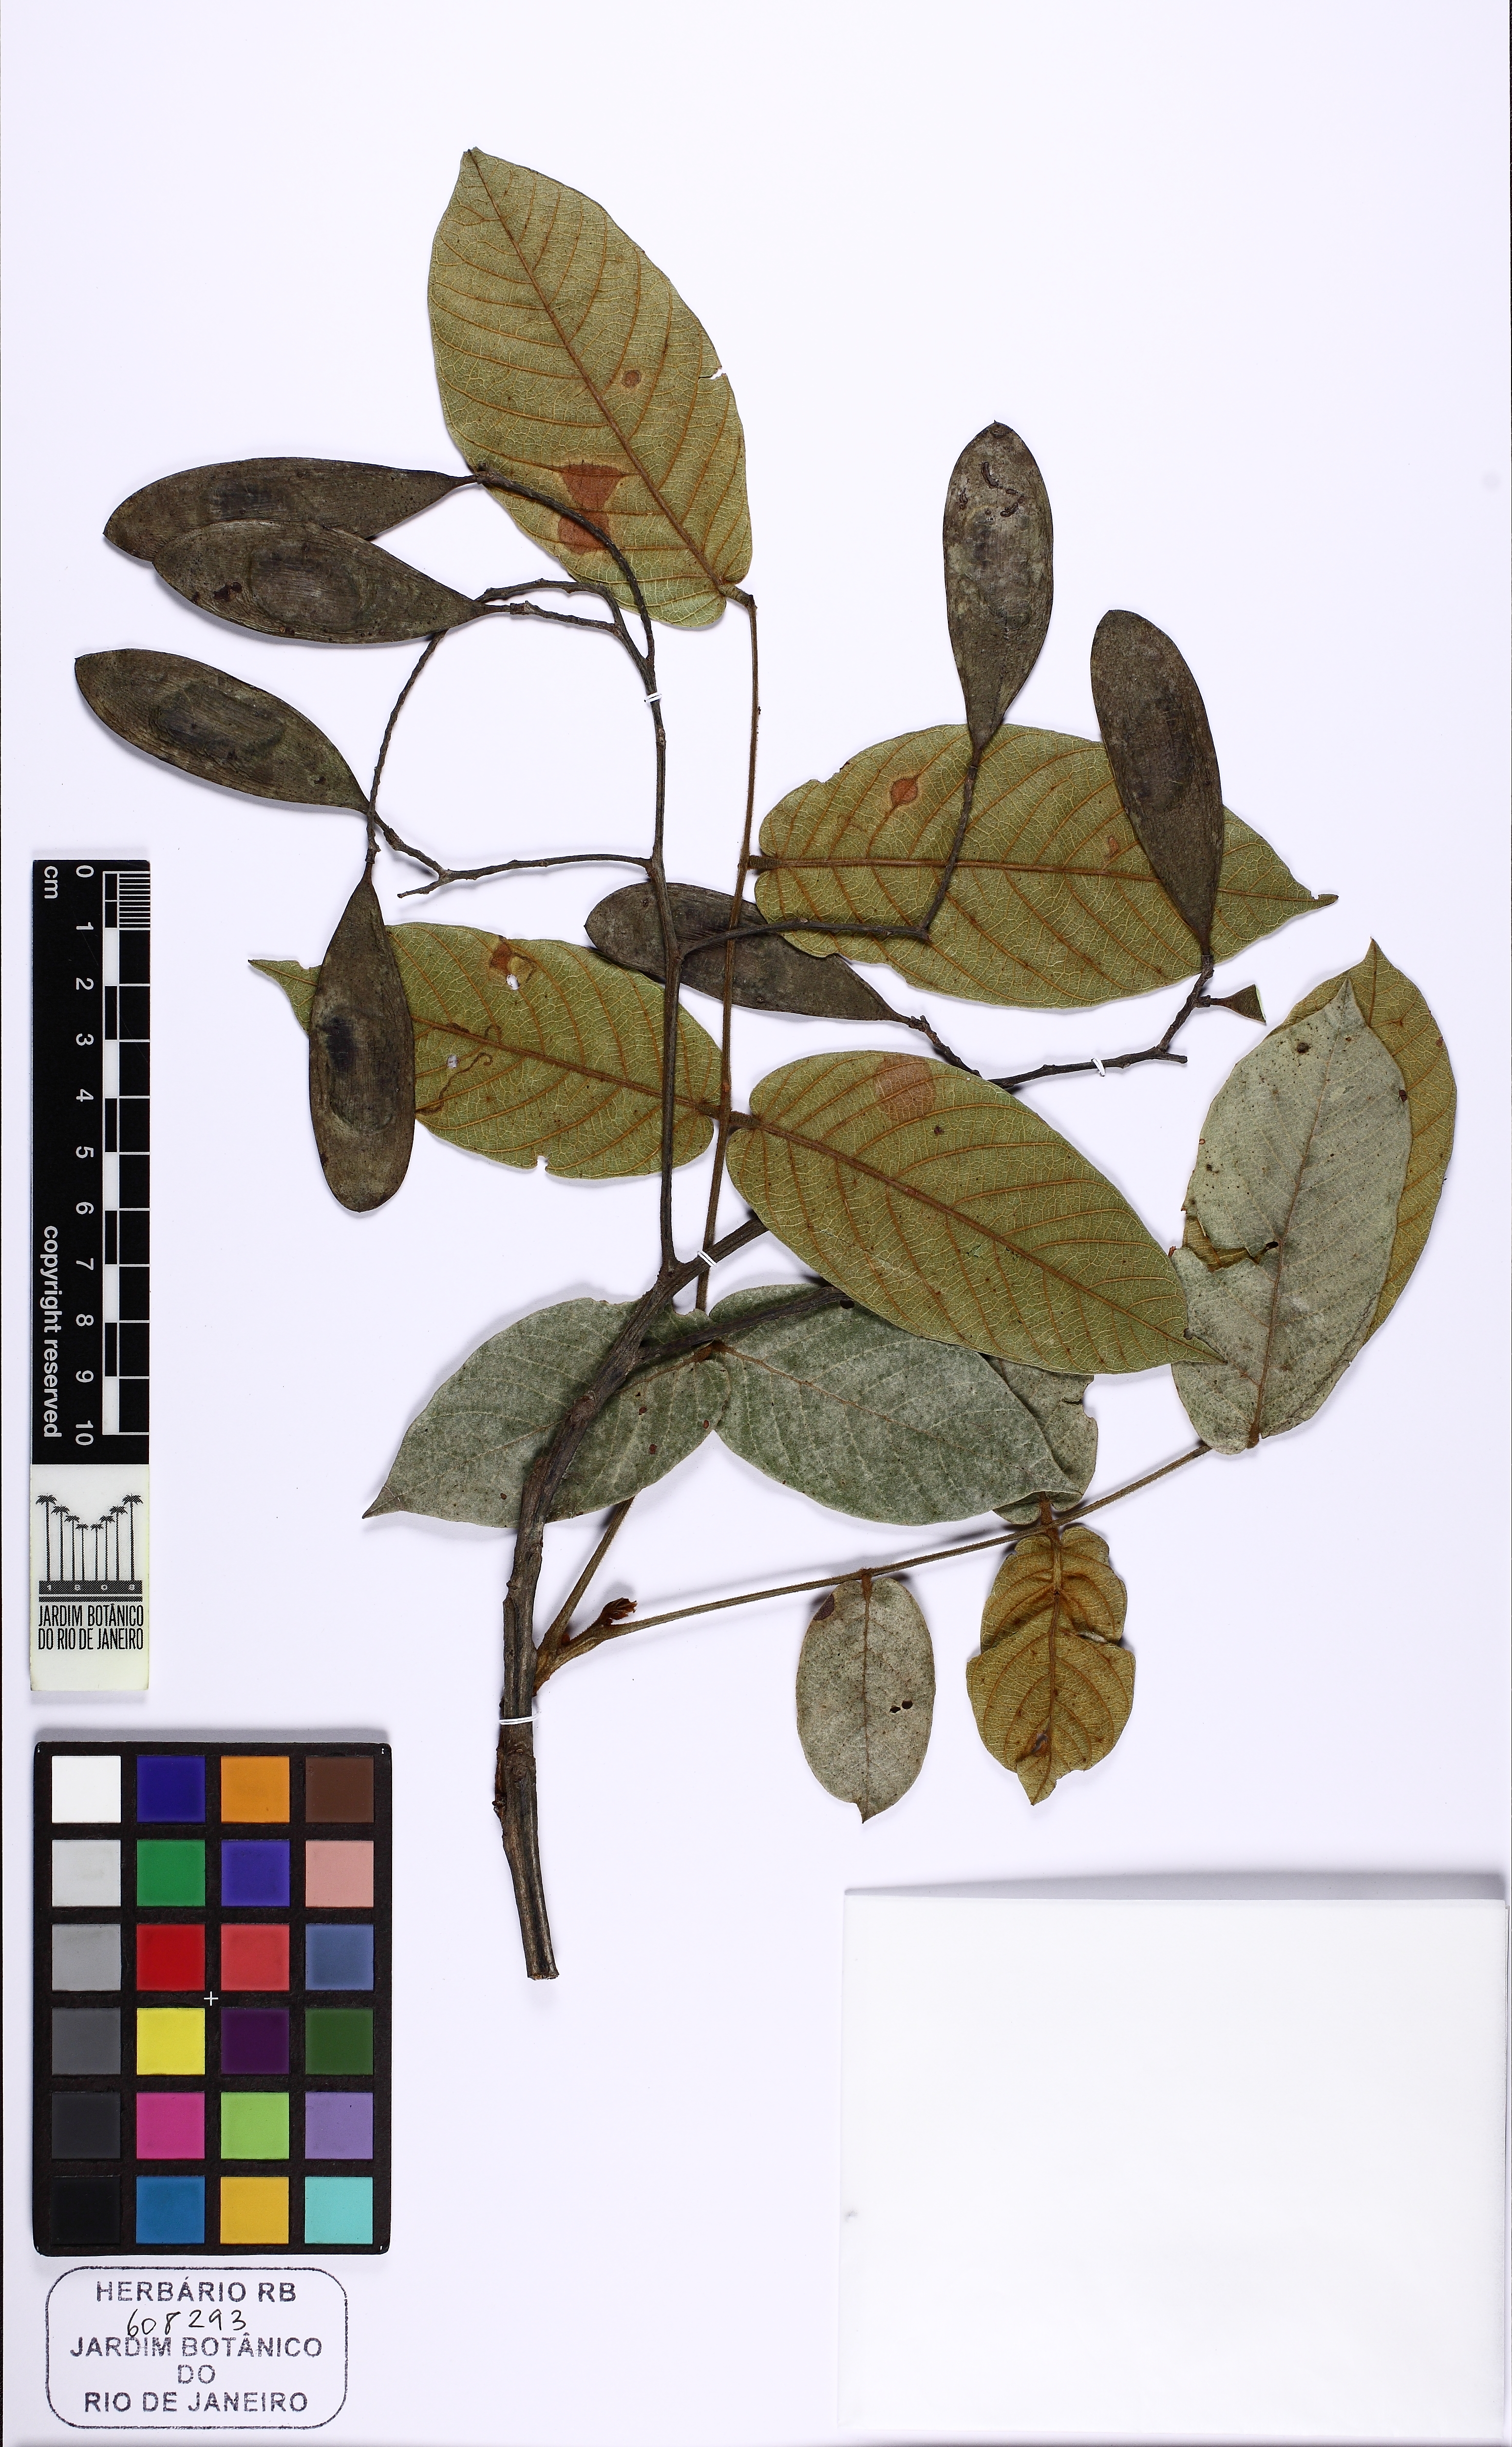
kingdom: Plantae
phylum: Tracheophyta
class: Magnoliopsida
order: Fabales
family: Fabaceae
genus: Tachigali
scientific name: Tachigali vulgaris
